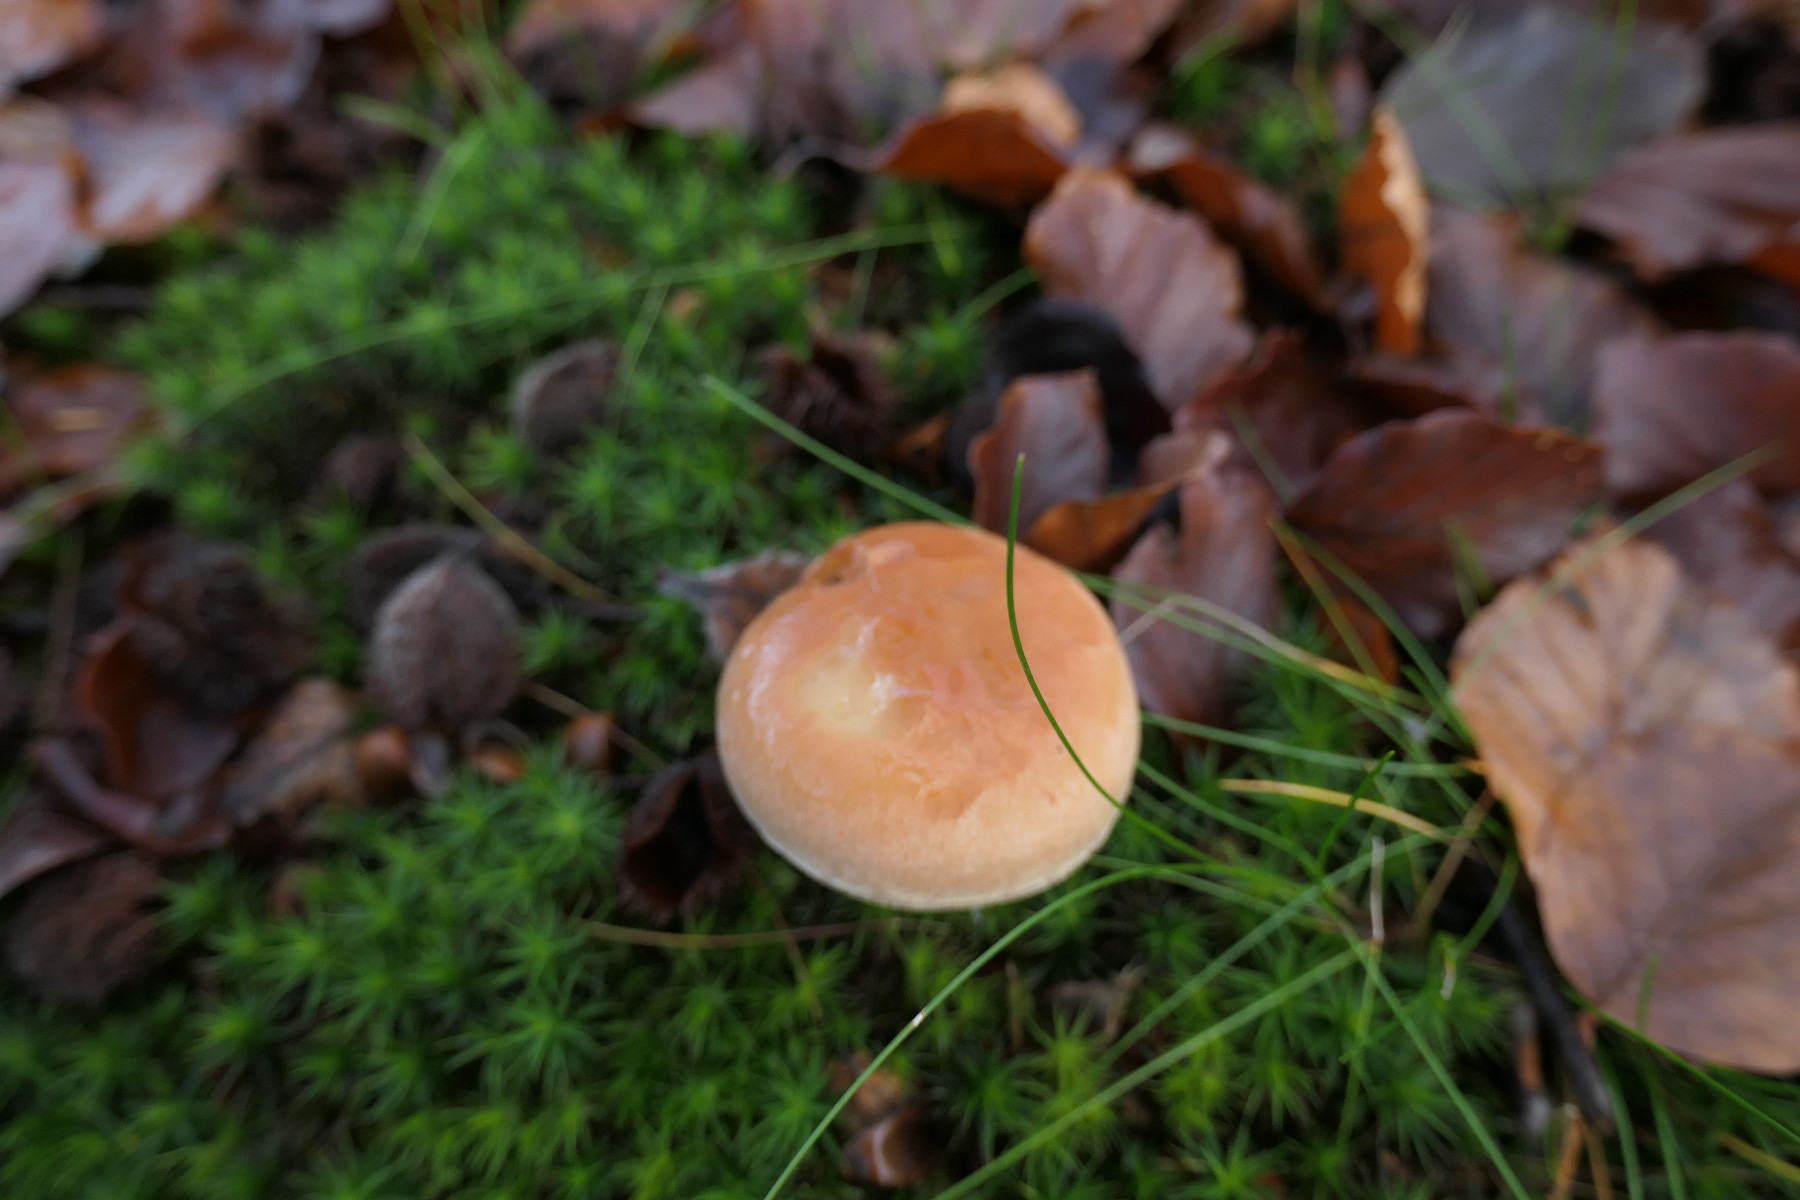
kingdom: Fungi
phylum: Basidiomycota
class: Agaricomycetes
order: Agaricales
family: Strophariaceae
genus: Hypholoma
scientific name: Hypholoma lateritium
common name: teglrød svovlhat
